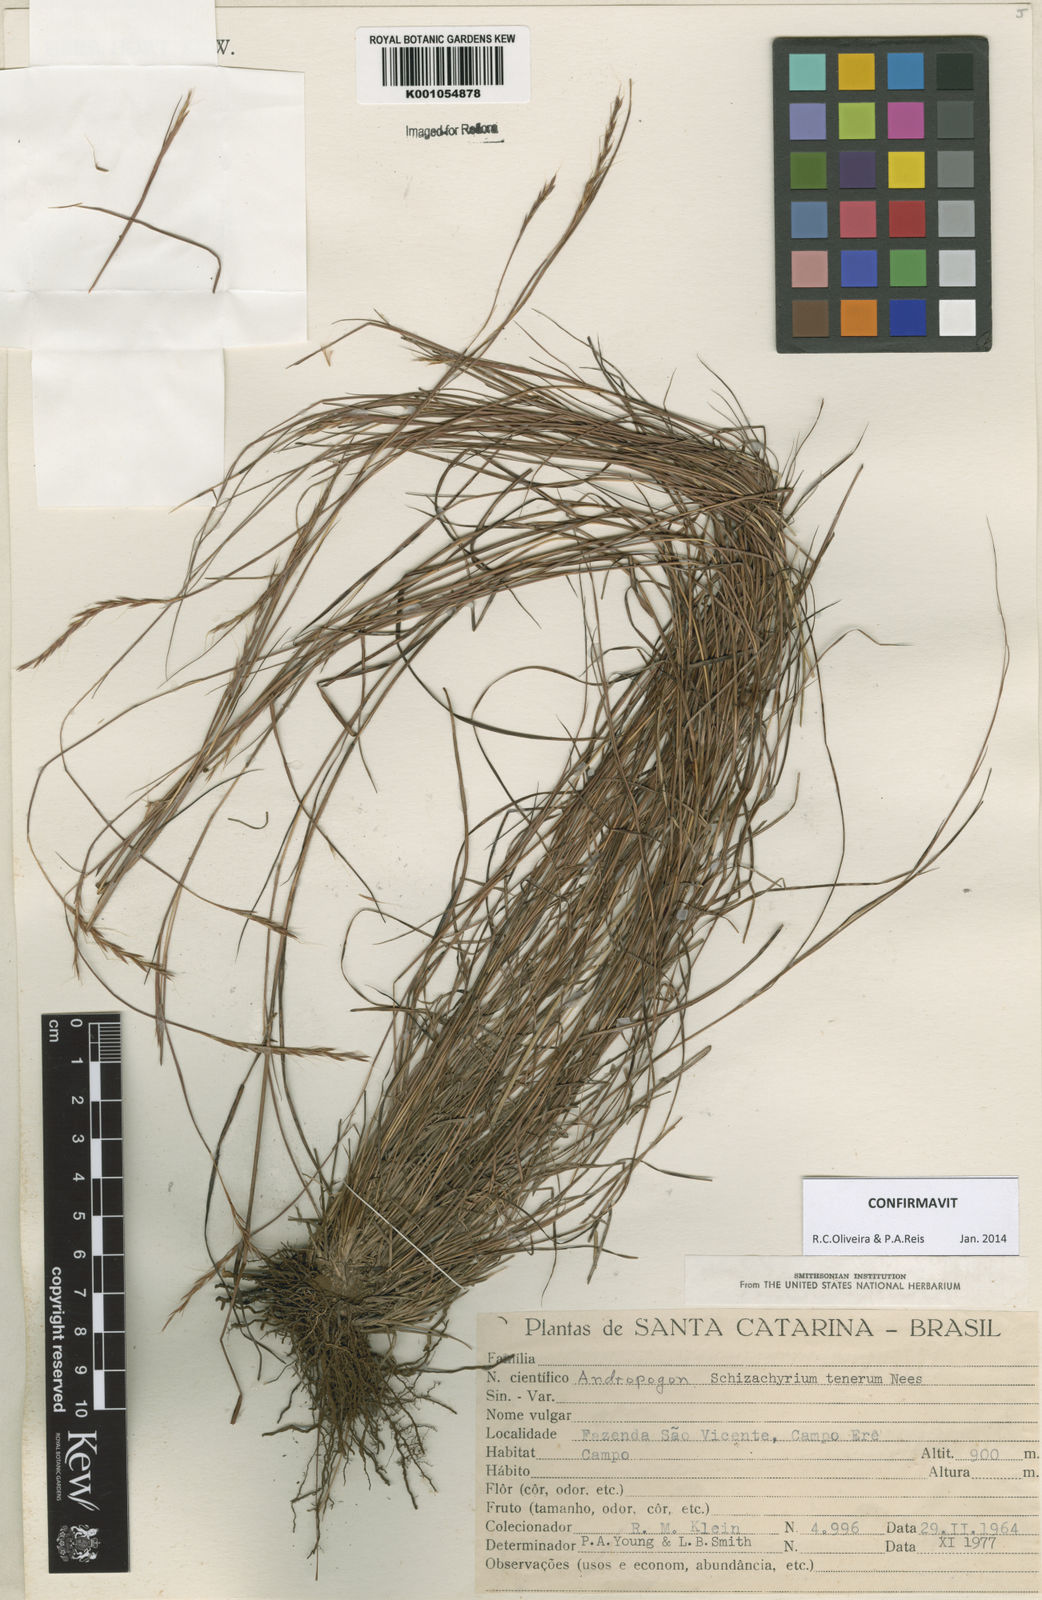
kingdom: Plantae
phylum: Tracheophyta
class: Liliopsida
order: Poales
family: Poaceae
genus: Andropogon
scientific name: Andropogon tener
